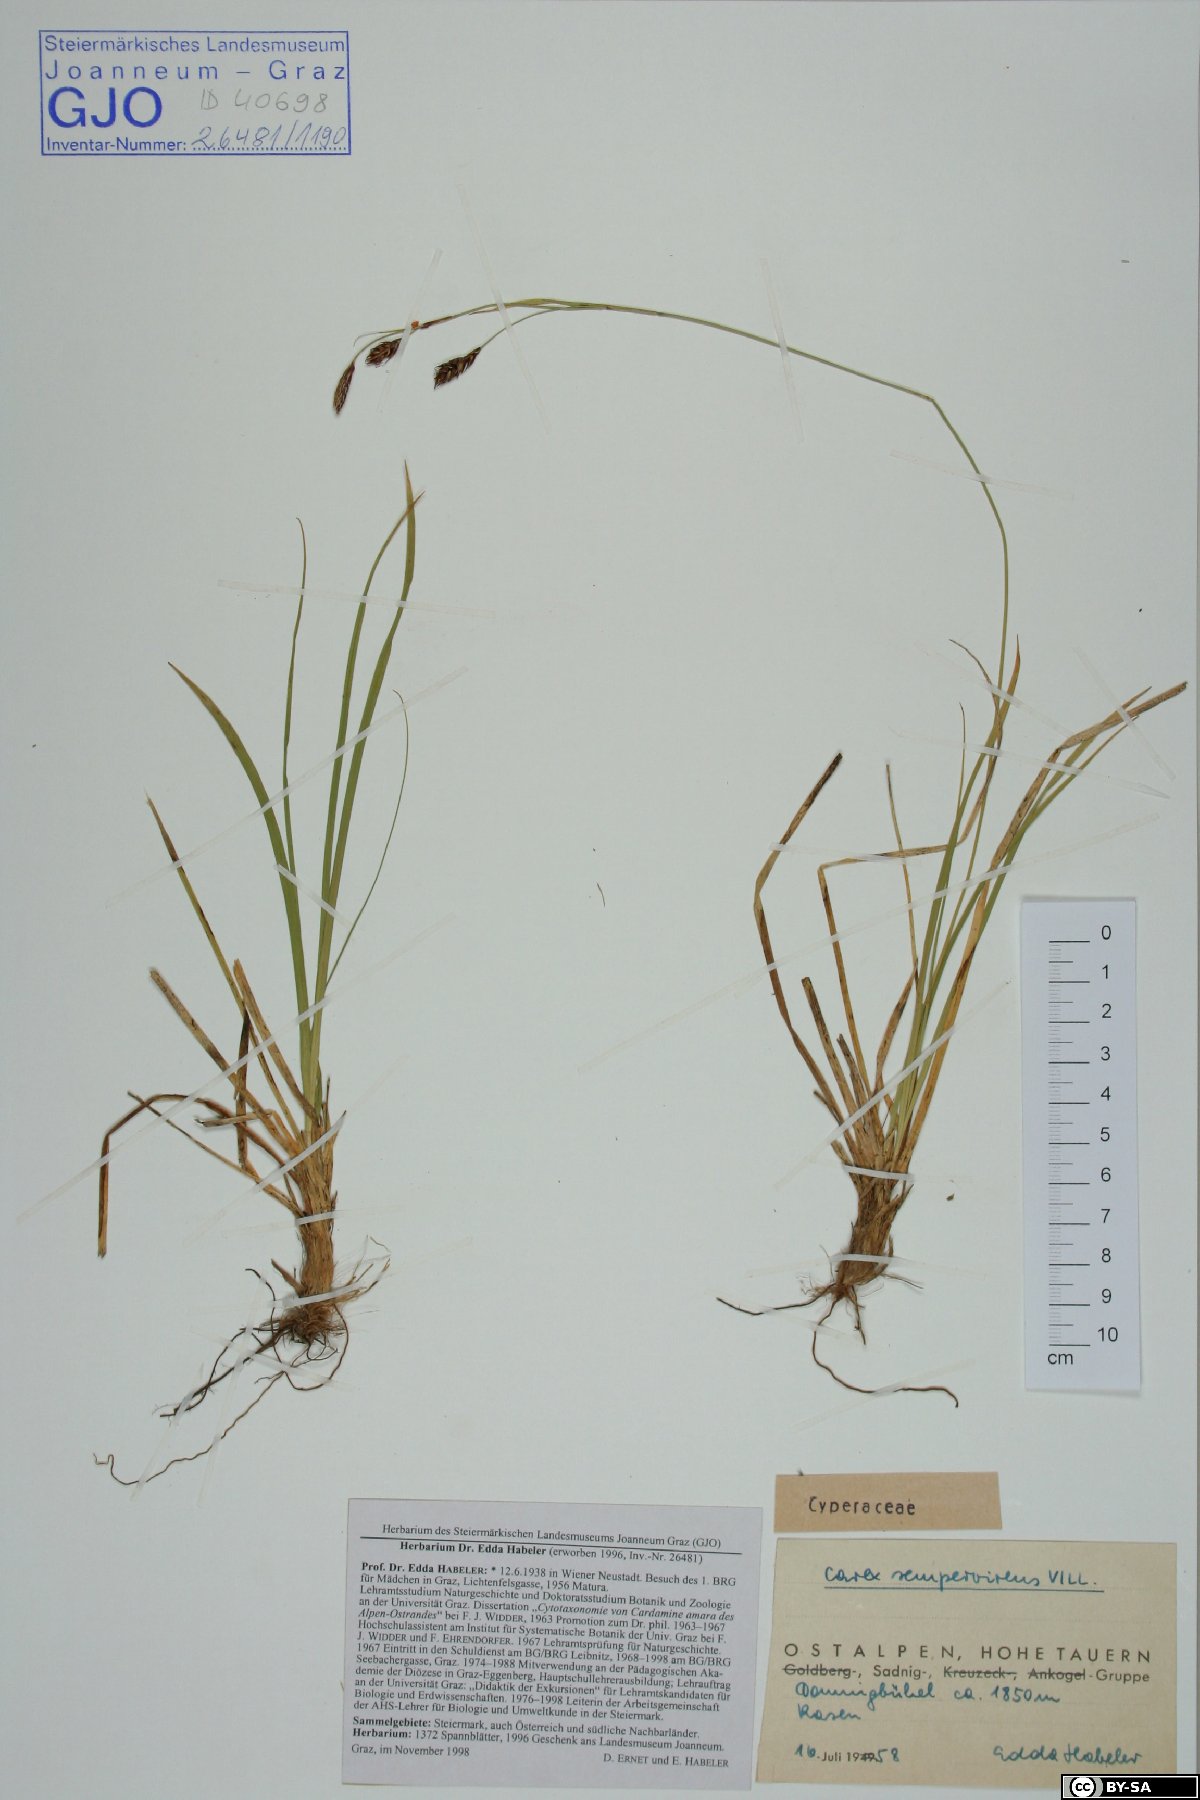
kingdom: Plantae
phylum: Tracheophyta
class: Liliopsida
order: Poales
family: Cyperaceae
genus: Carex
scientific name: Carex sempervirens
